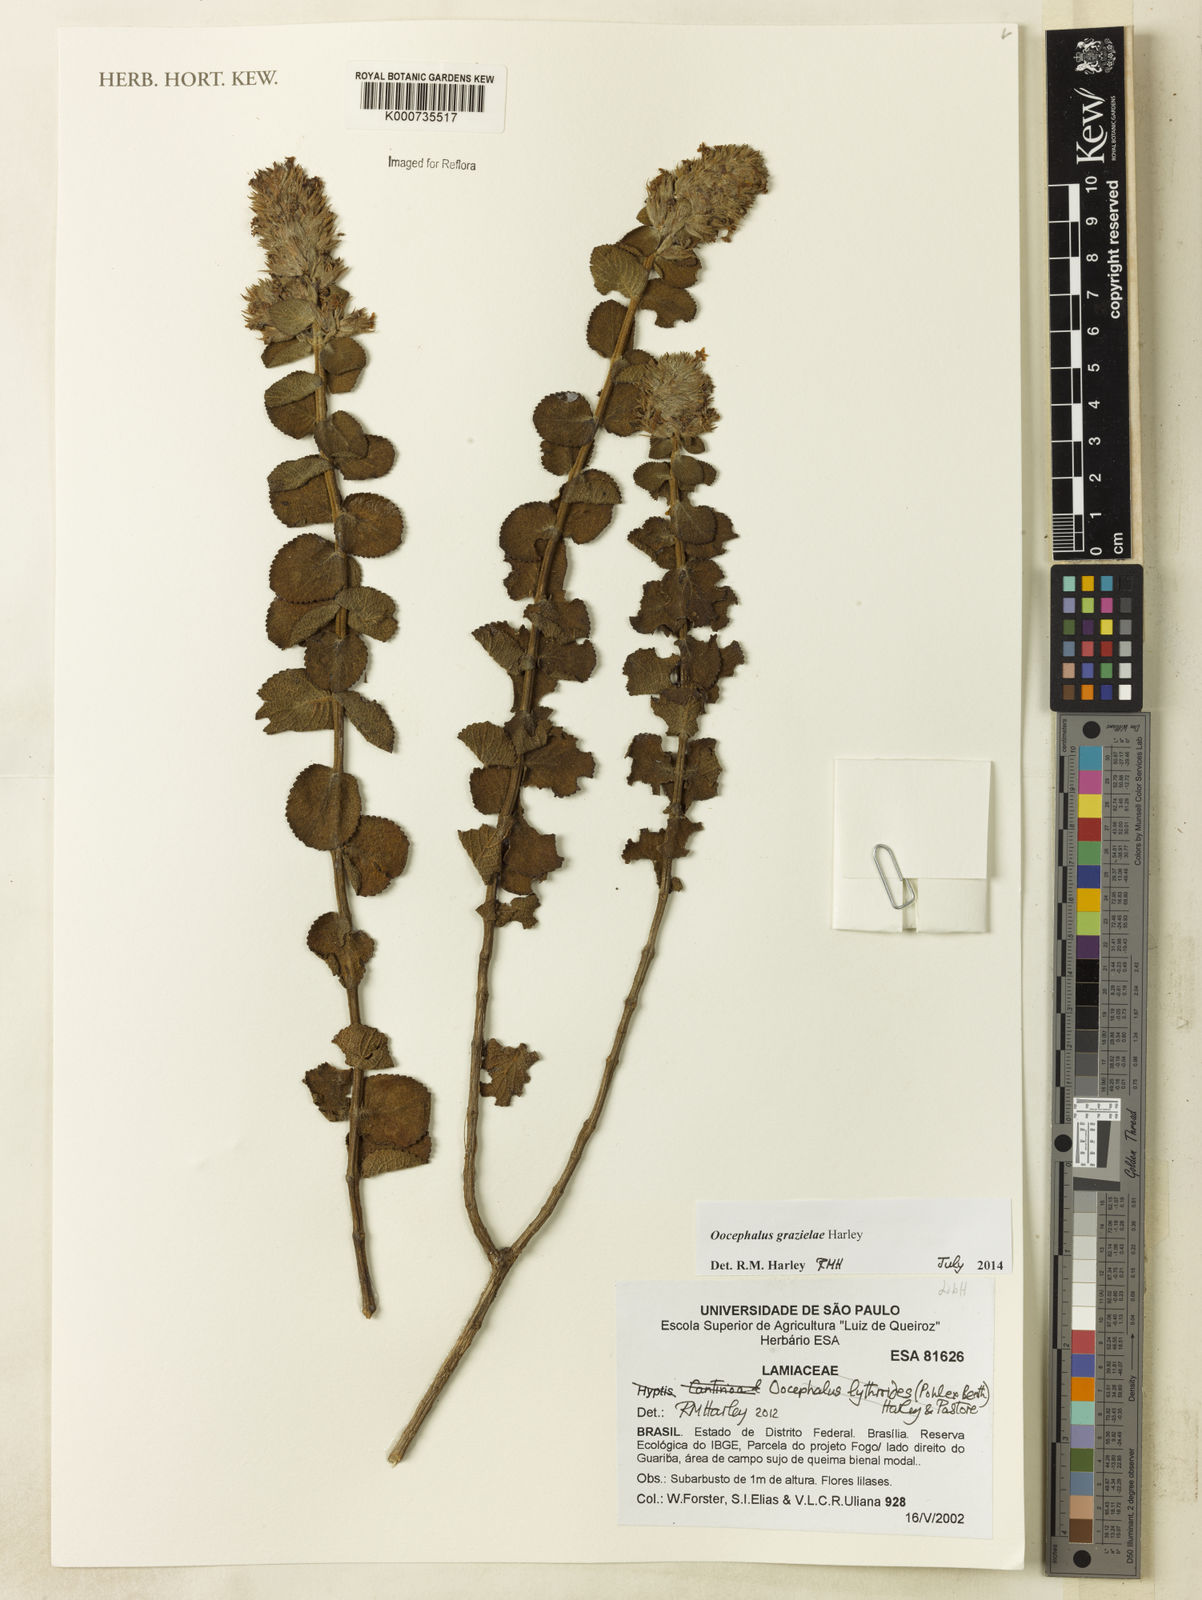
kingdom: Plantae
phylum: Tracheophyta
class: Magnoliopsida
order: Lamiales
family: Lamiaceae
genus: Oocephalus
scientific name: Oocephalus lythroides
